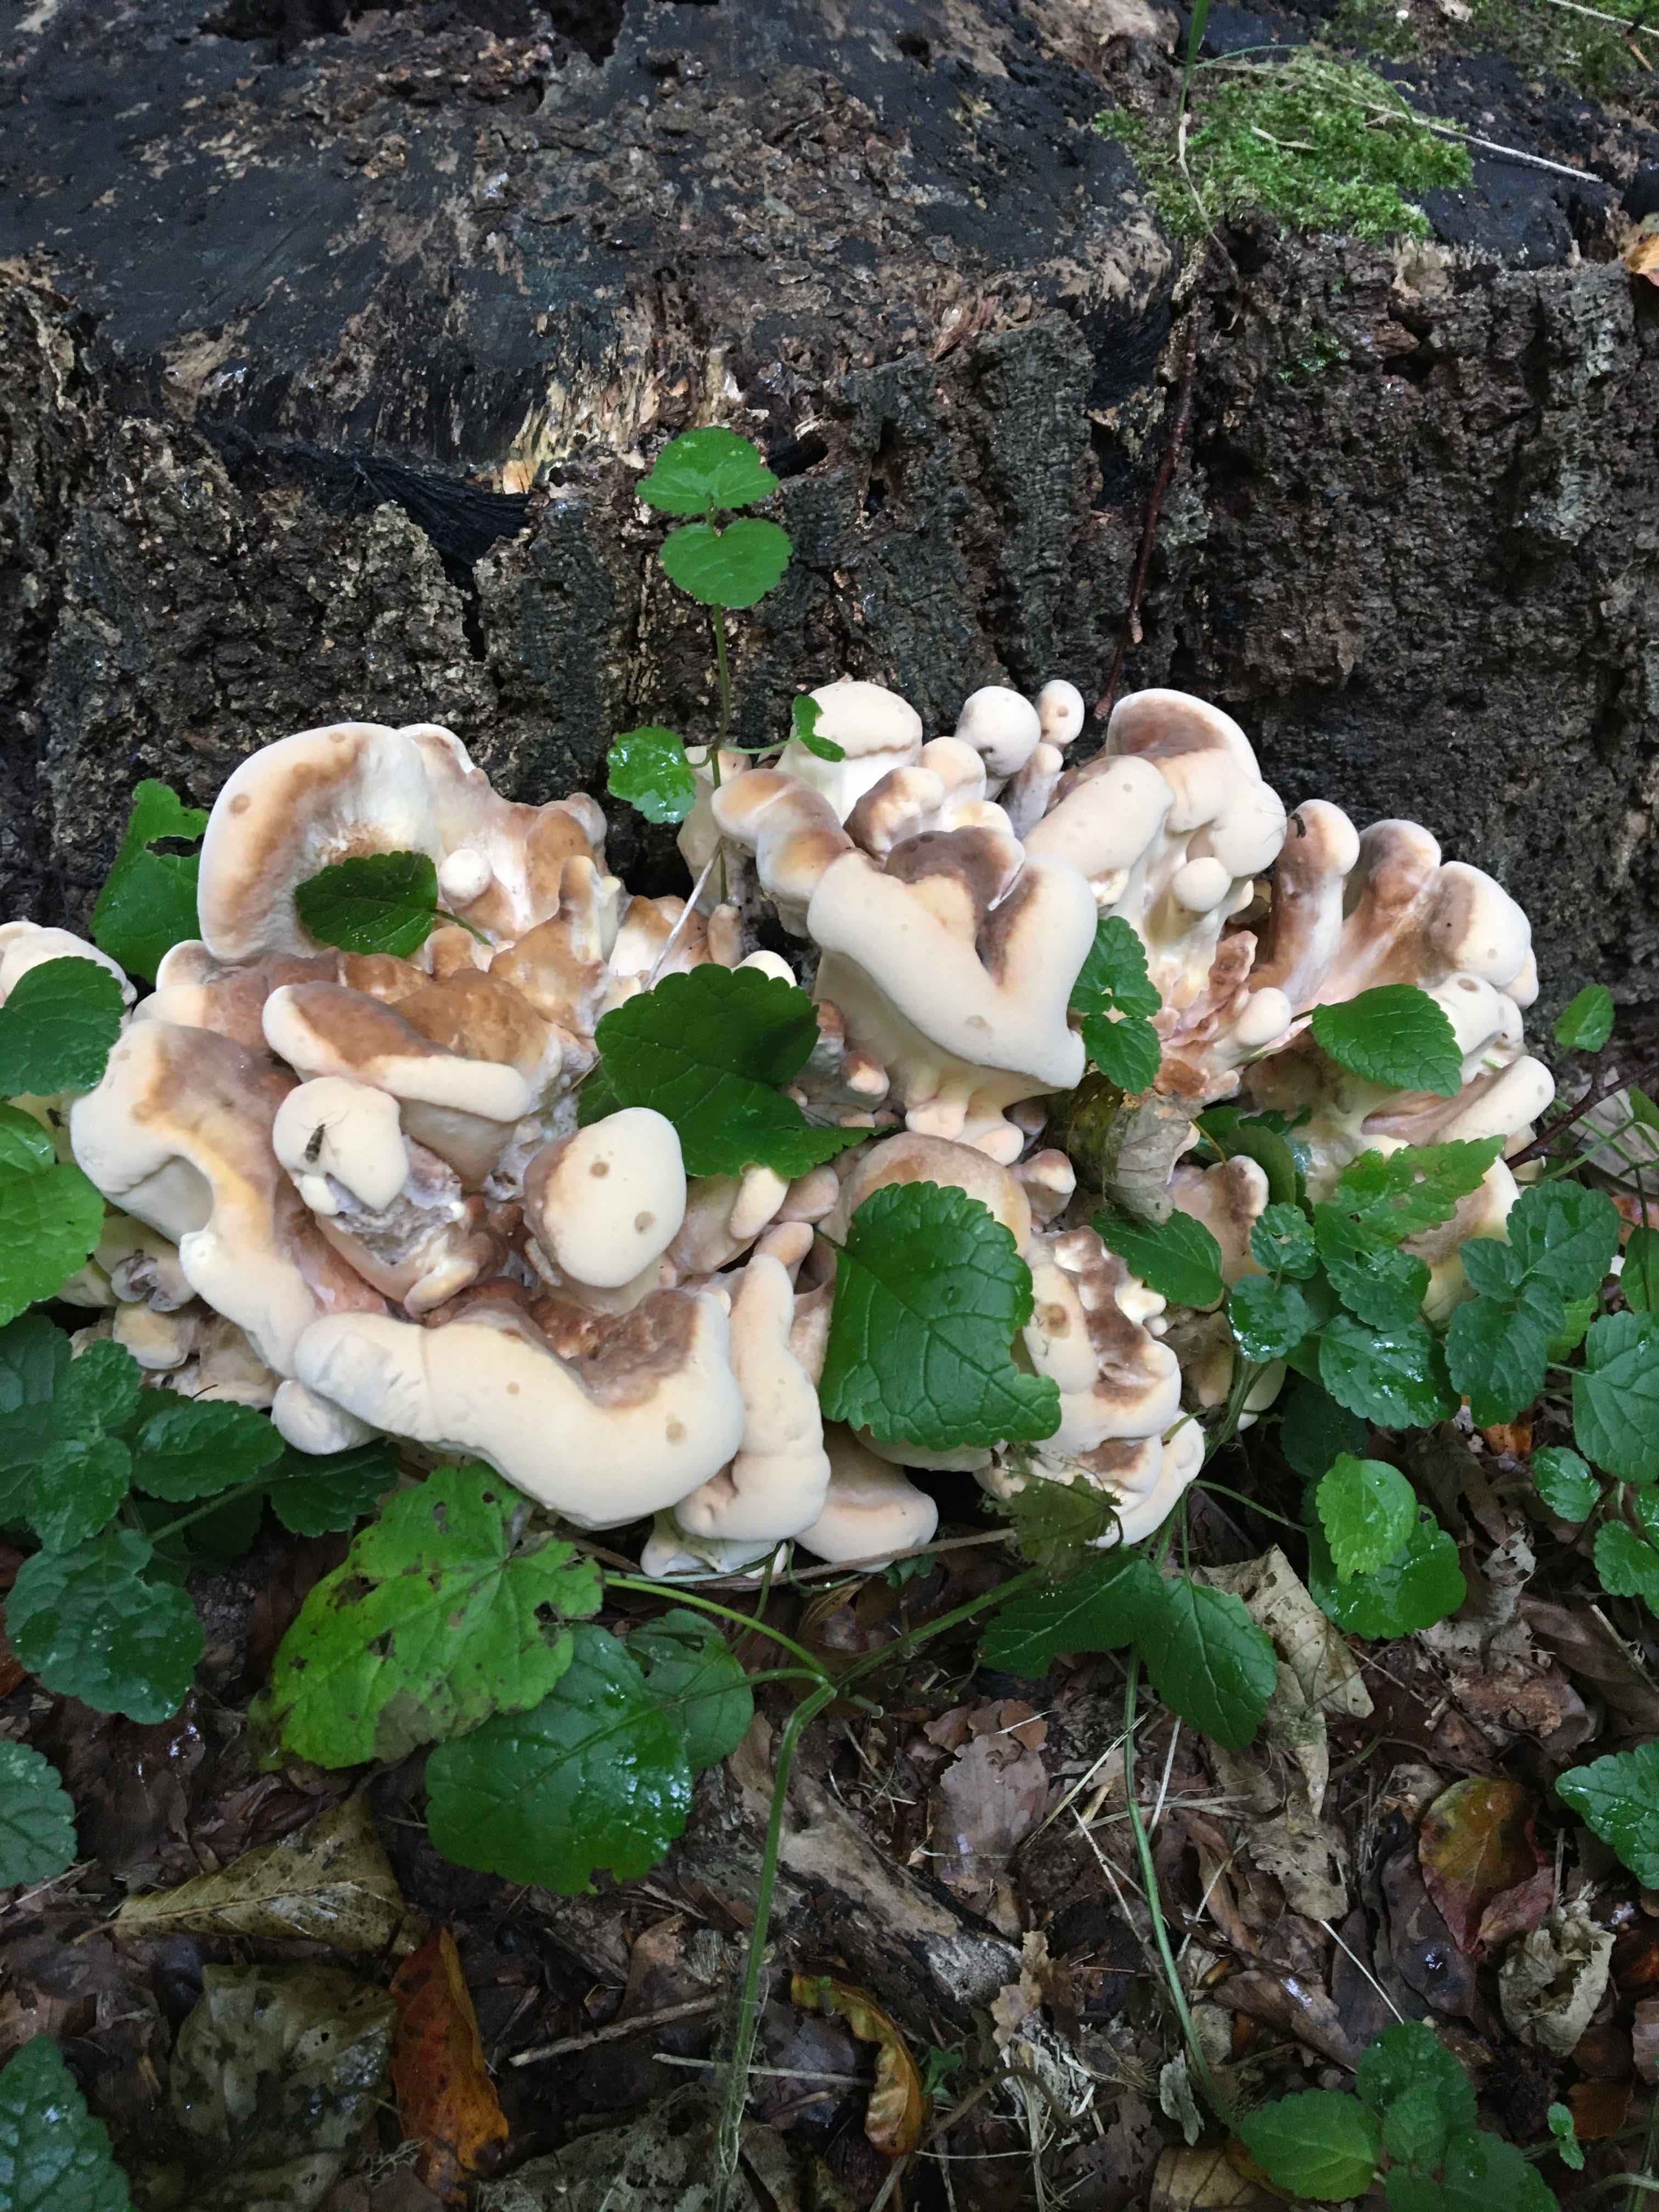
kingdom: Fungi
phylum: Basidiomycota
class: Agaricomycetes
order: Polyporales
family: Meripilaceae
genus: Meripilus
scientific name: Meripilus giganteus
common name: kæmpeporesvamp
